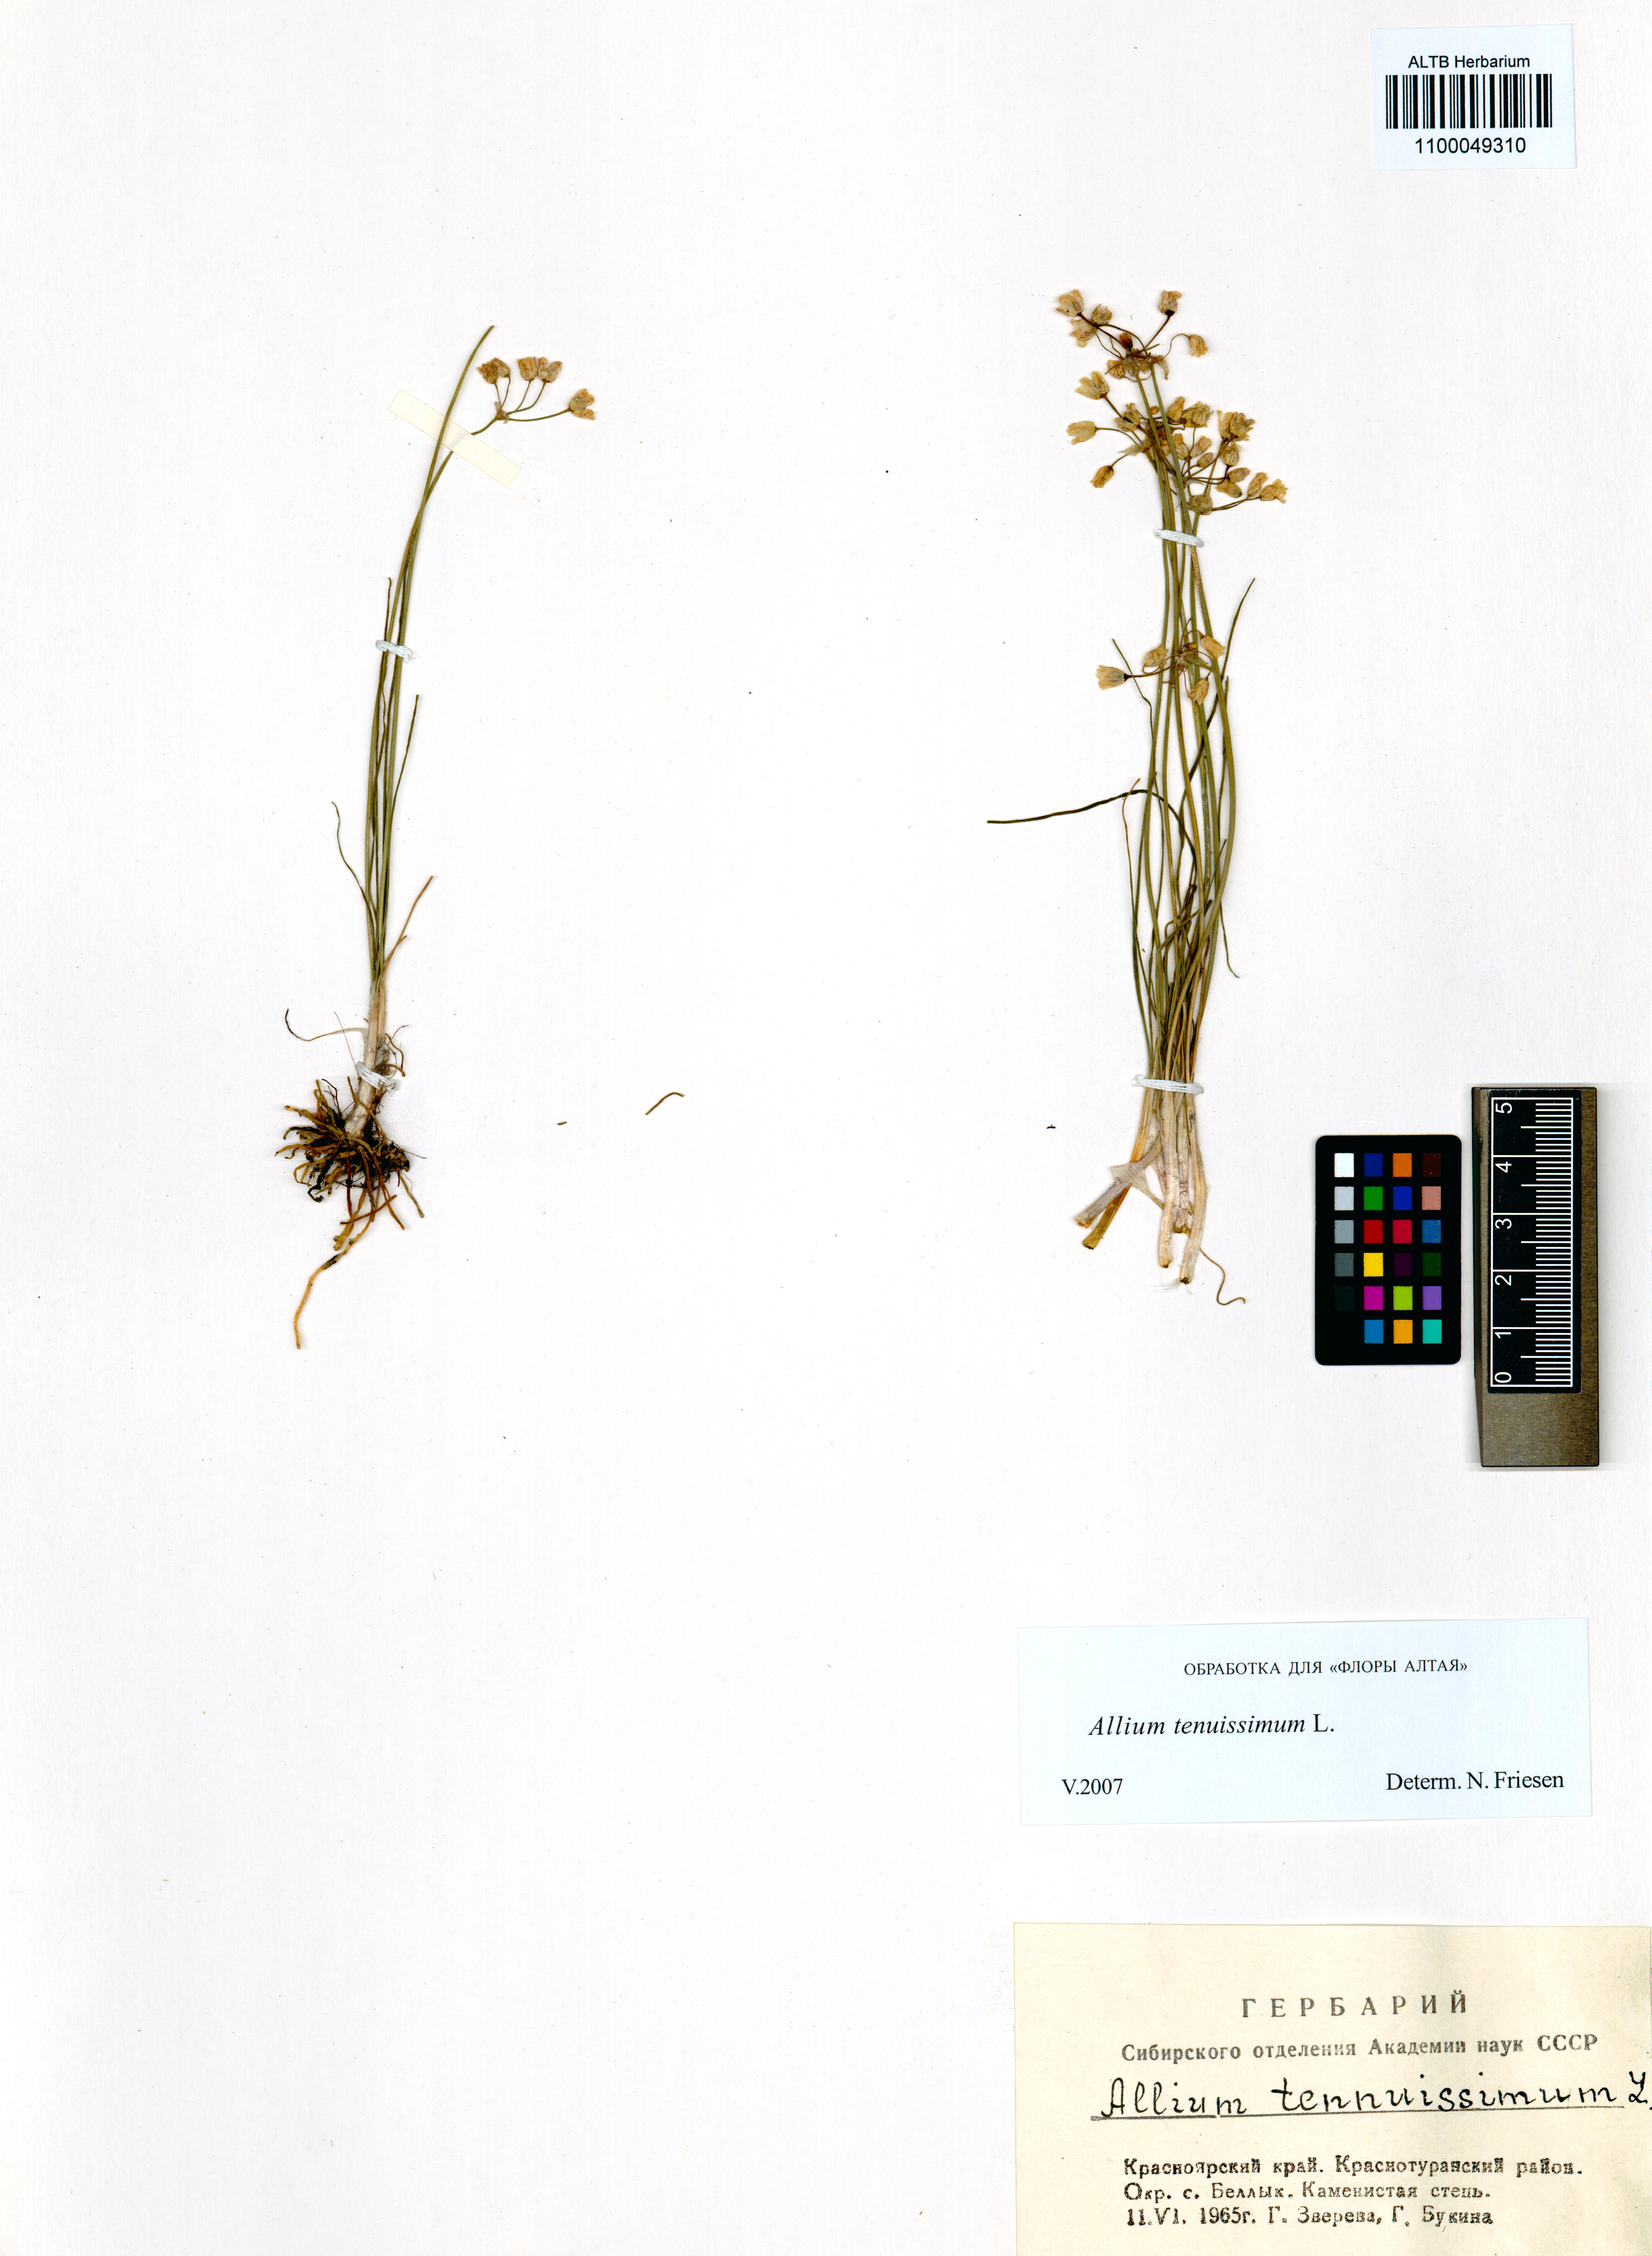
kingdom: Plantae
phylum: Tracheophyta
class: Liliopsida
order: Asparagales
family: Amaryllidaceae
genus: Allium
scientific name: Allium tenuissimum
